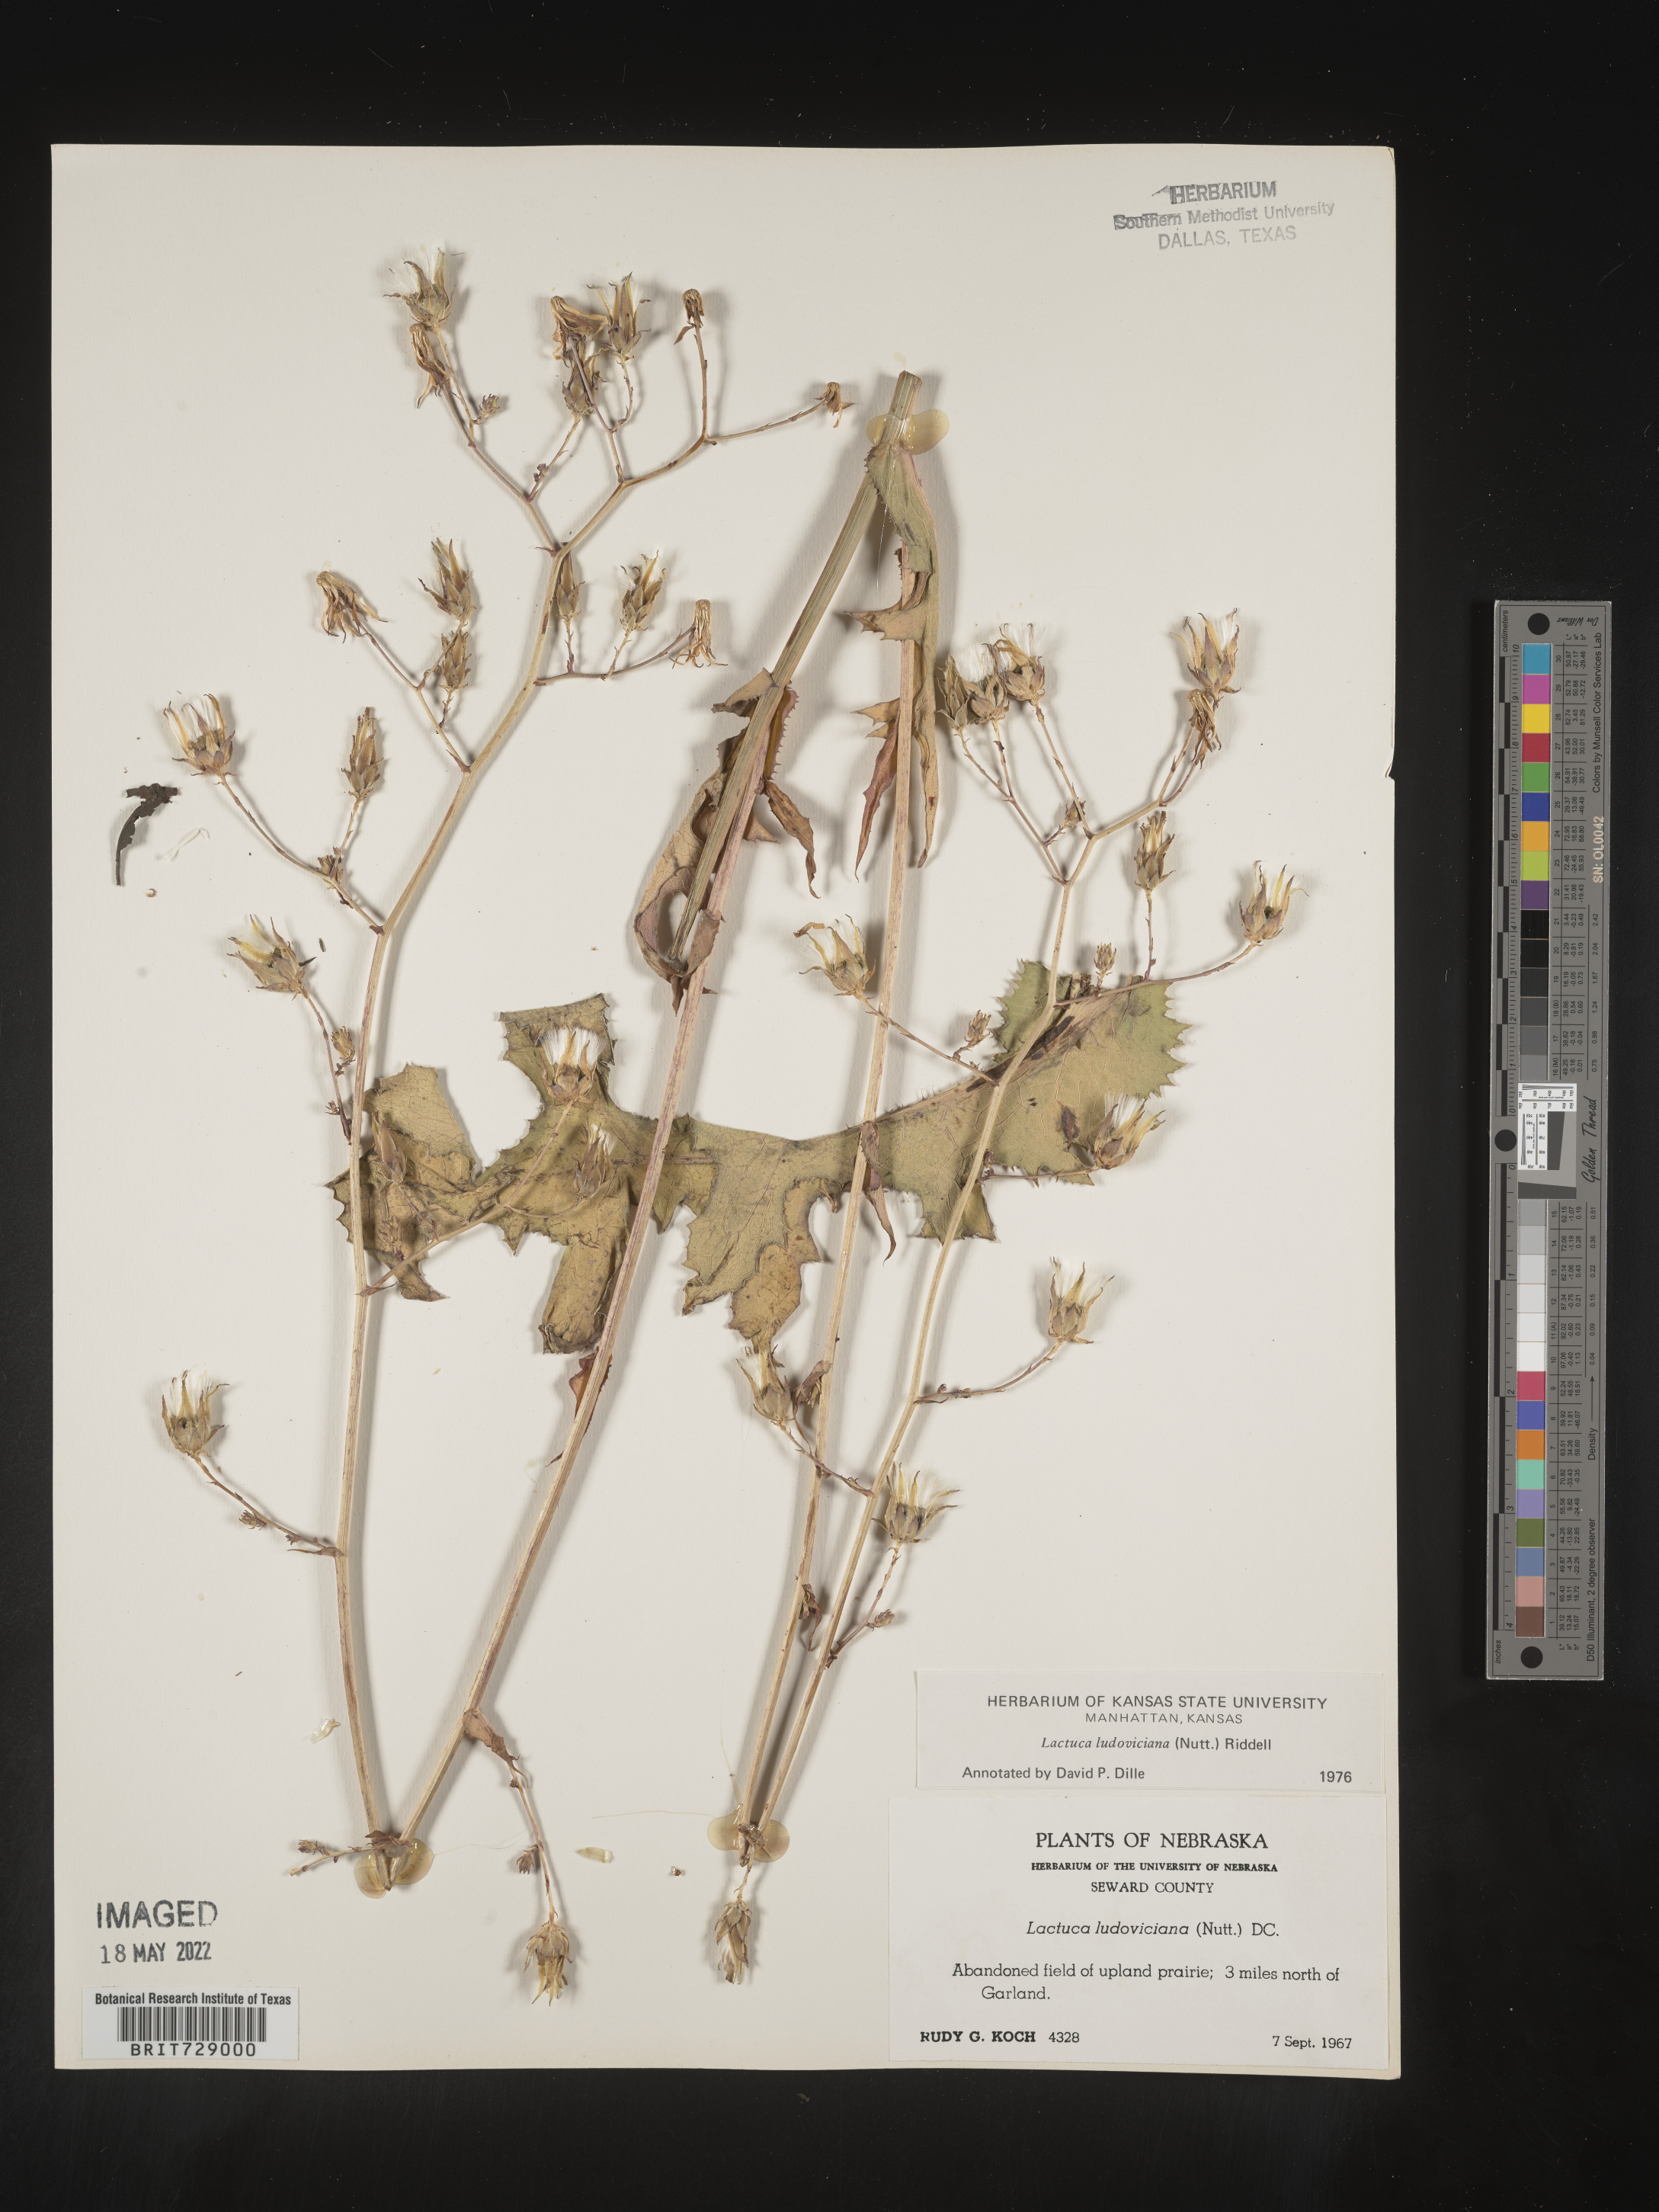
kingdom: Plantae
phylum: Tracheophyta
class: Magnoliopsida
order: Asterales
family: Asteraceae
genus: Lactuca
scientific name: Lactuca
